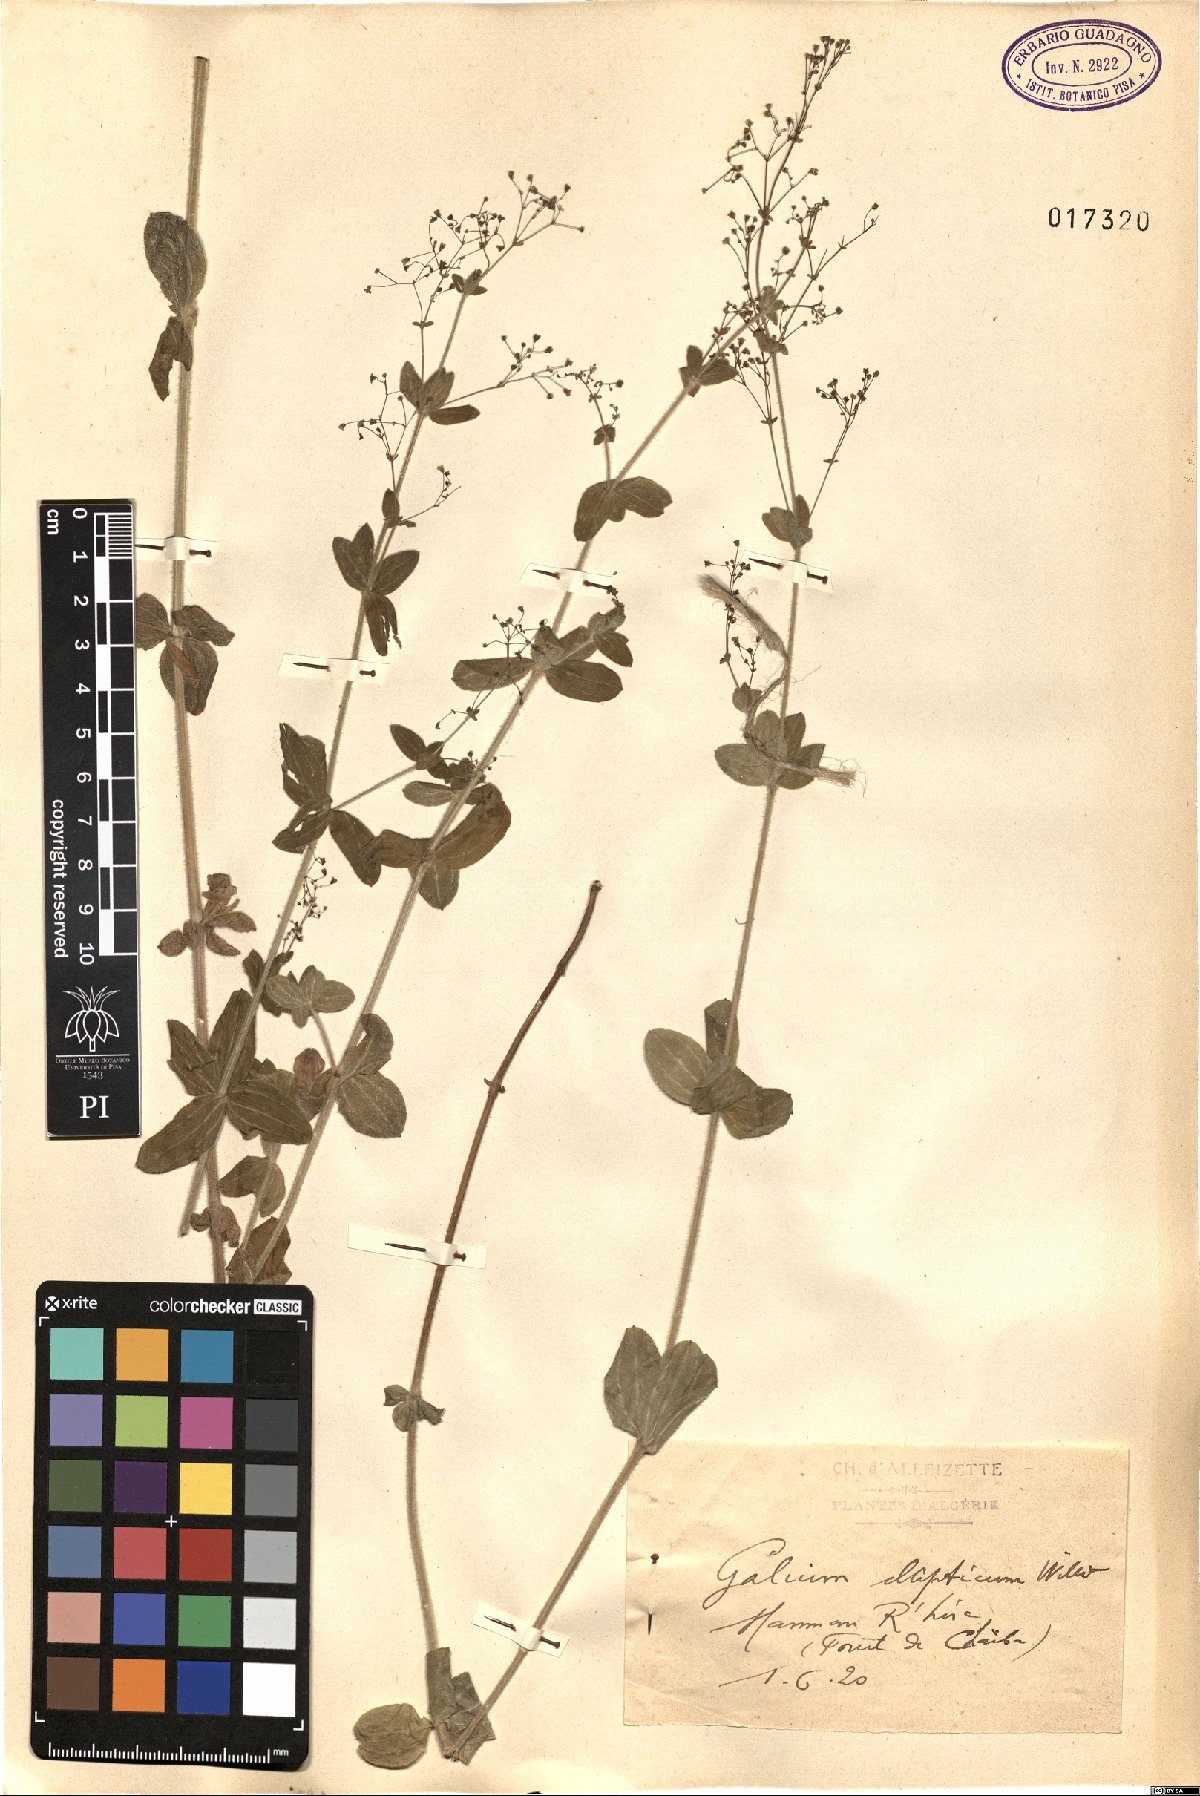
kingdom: Plantae
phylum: Tracheophyta
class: Magnoliopsida
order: Gentianales
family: Rubiaceae
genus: Galium
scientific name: Galium ellipticum
